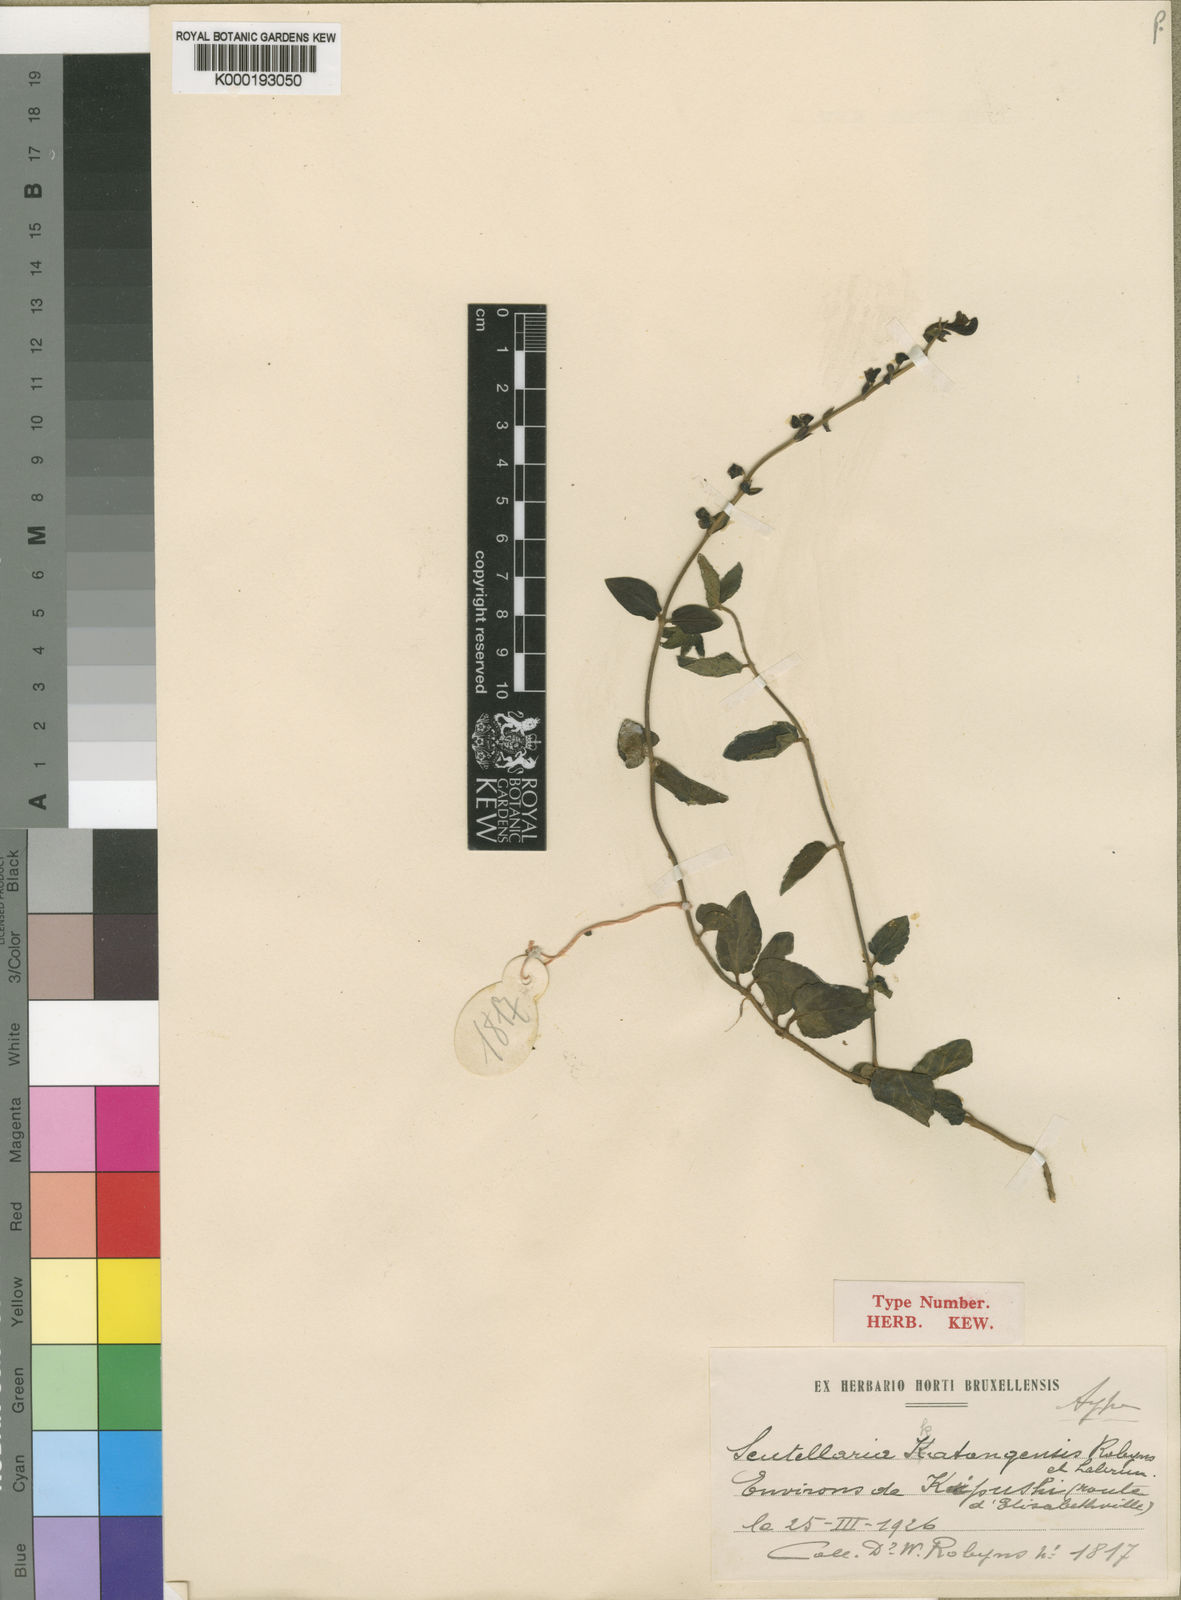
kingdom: Plantae
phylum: Tracheophyta
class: Magnoliopsida
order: Lamiales
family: Lamiaceae
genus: Scutellaria
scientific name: Scutellaria schweinfurthii
